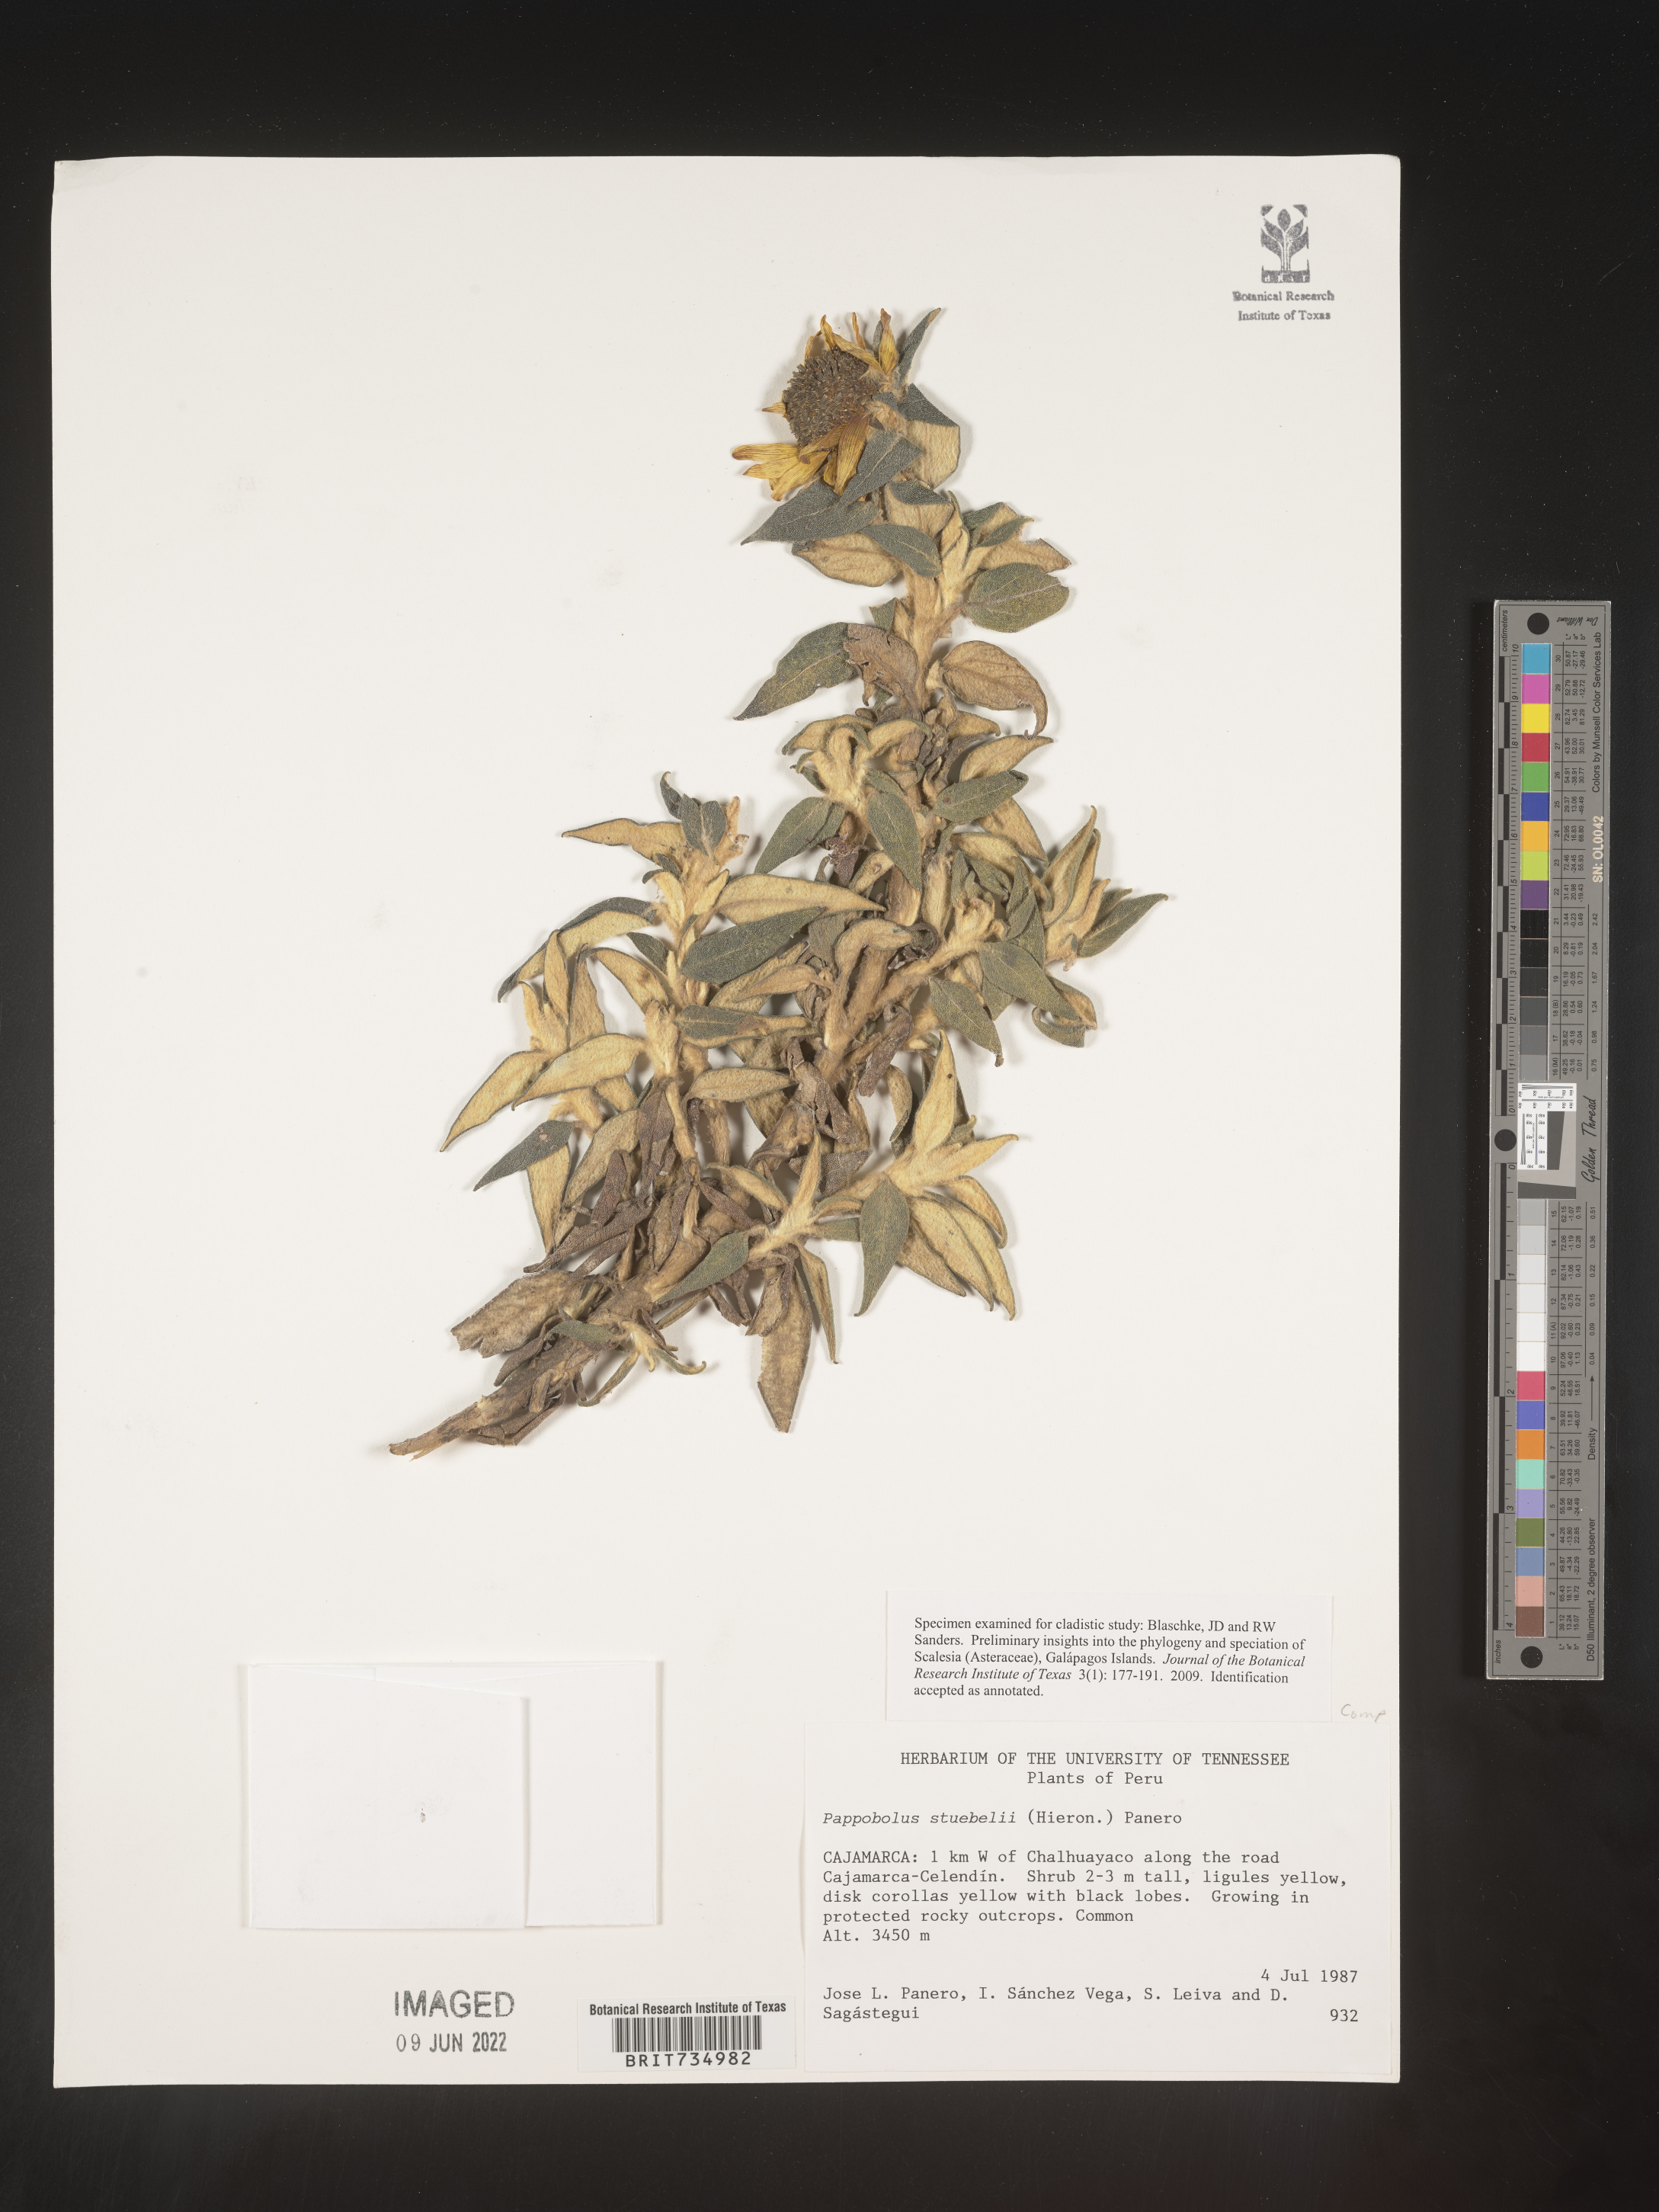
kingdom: Plantae
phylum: Tracheophyta
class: Magnoliopsida
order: Asterales
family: Asteraceae
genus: Pappobolus
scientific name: Pappobolus
